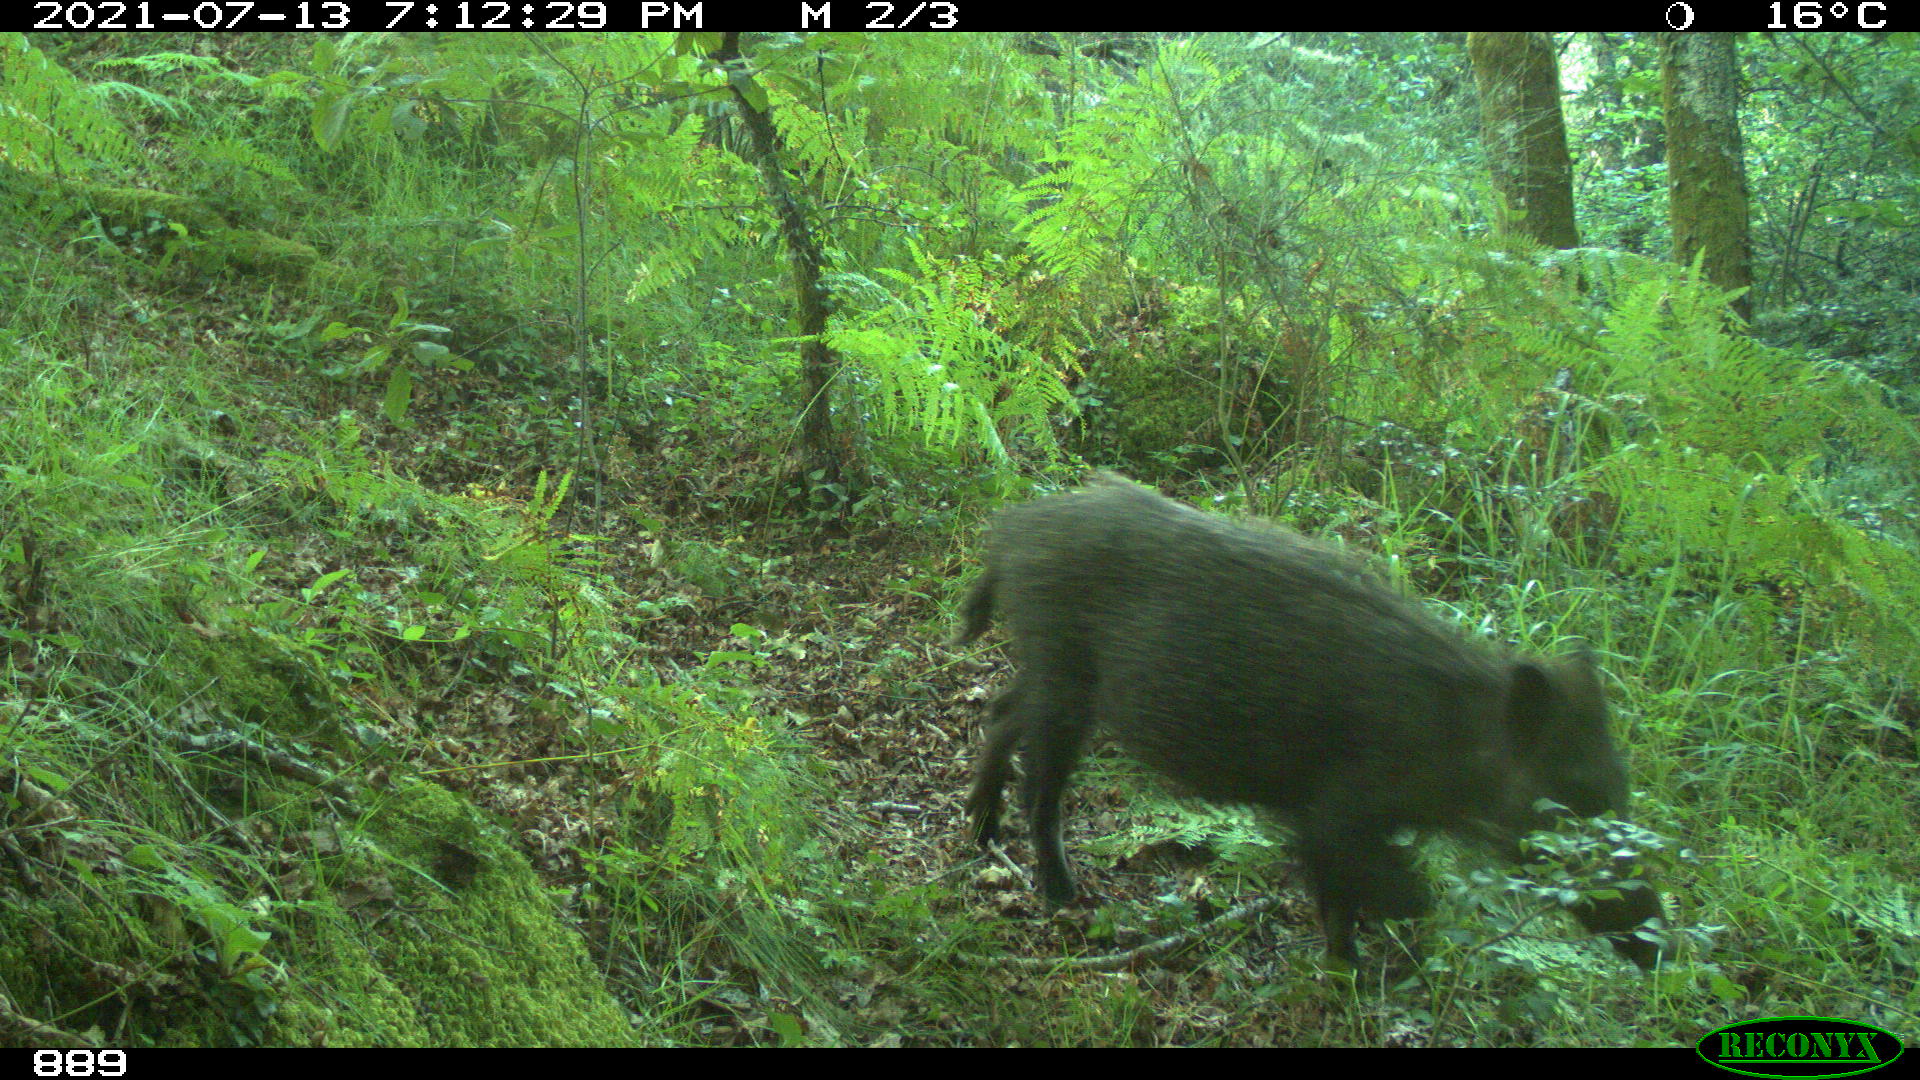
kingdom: Animalia
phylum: Chordata
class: Mammalia
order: Artiodactyla
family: Suidae
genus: Sus
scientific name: Sus scrofa
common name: Wild boar
